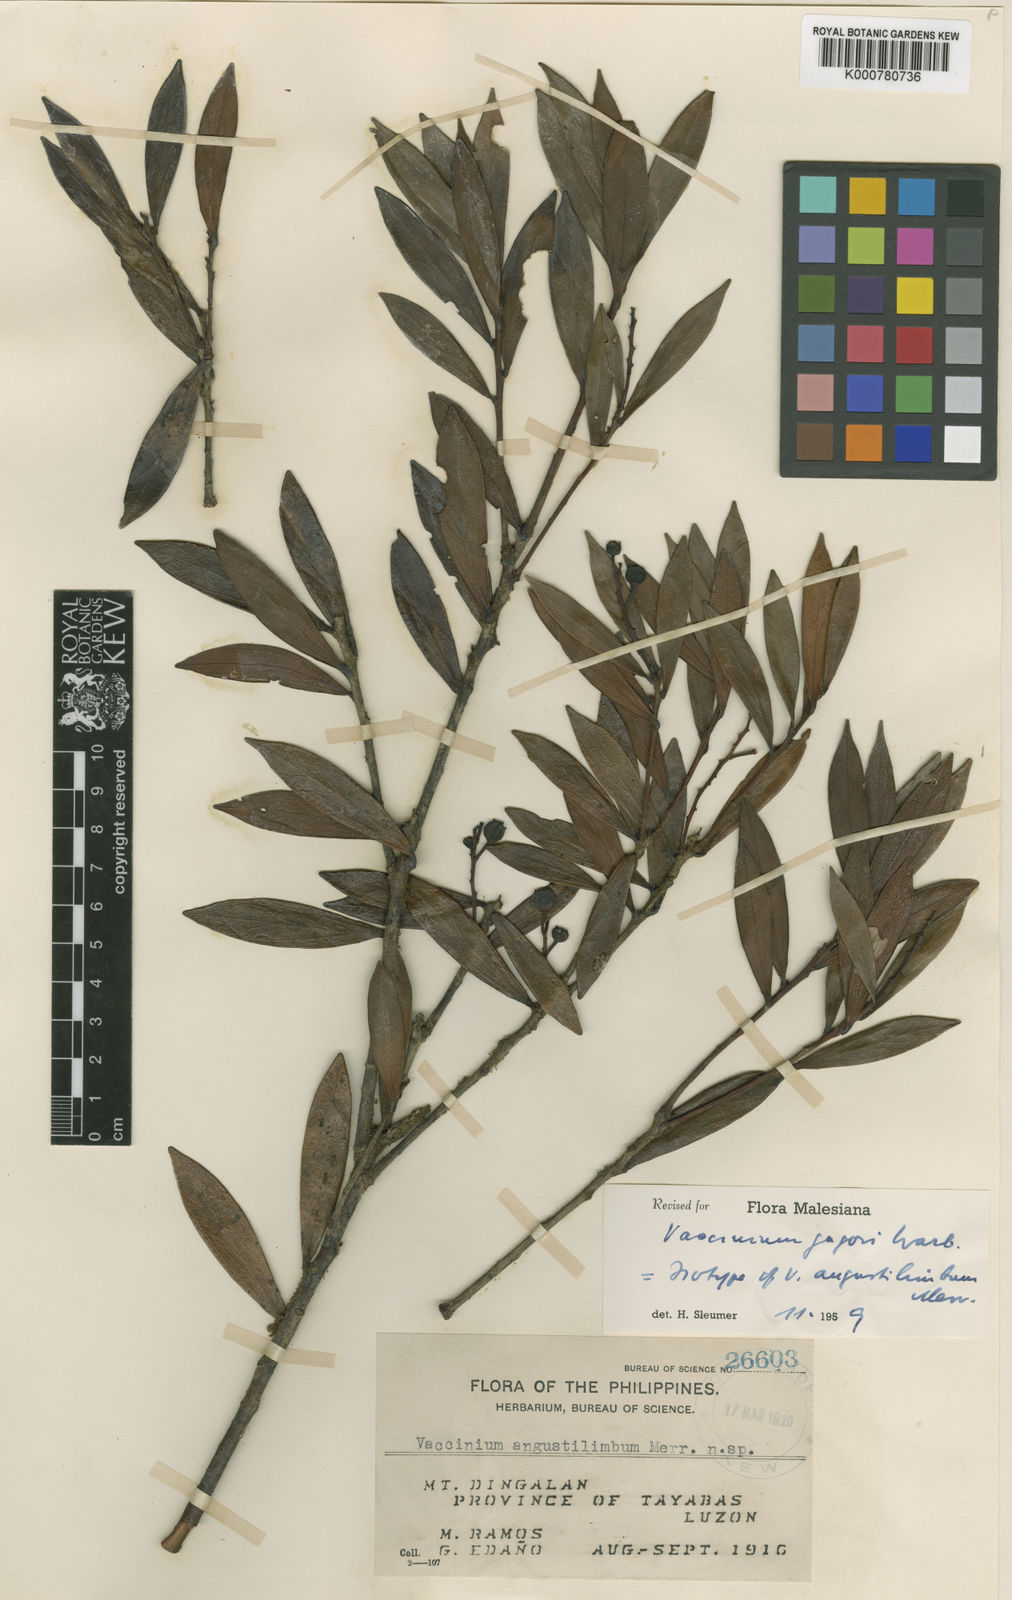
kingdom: Plantae
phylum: Tracheophyta
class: Magnoliopsida
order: Ericales
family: Ericaceae
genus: Vaccinium
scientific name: Vaccinium jagorii
